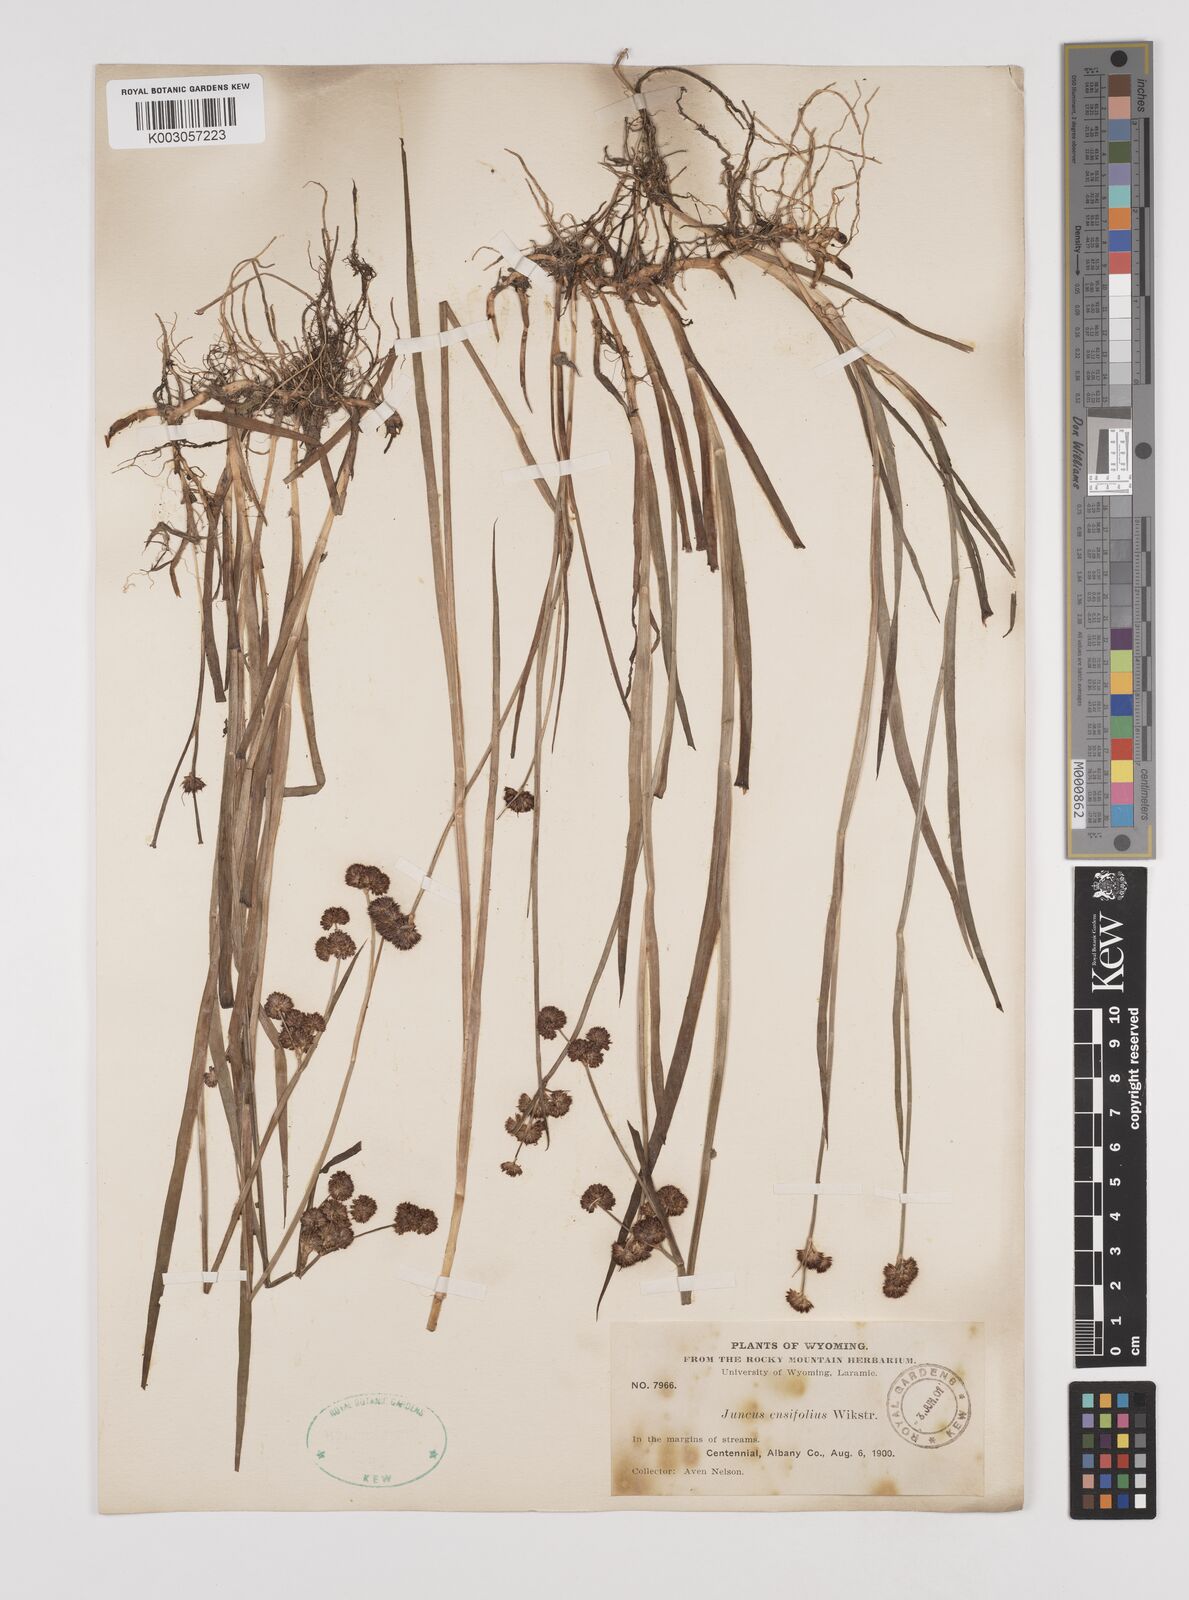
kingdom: Plantae
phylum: Tracheophyta
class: Liliopsida
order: Poales
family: Juncaceae
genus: Juncus
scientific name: Juncus ensifolius
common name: Sword-leaved rush
